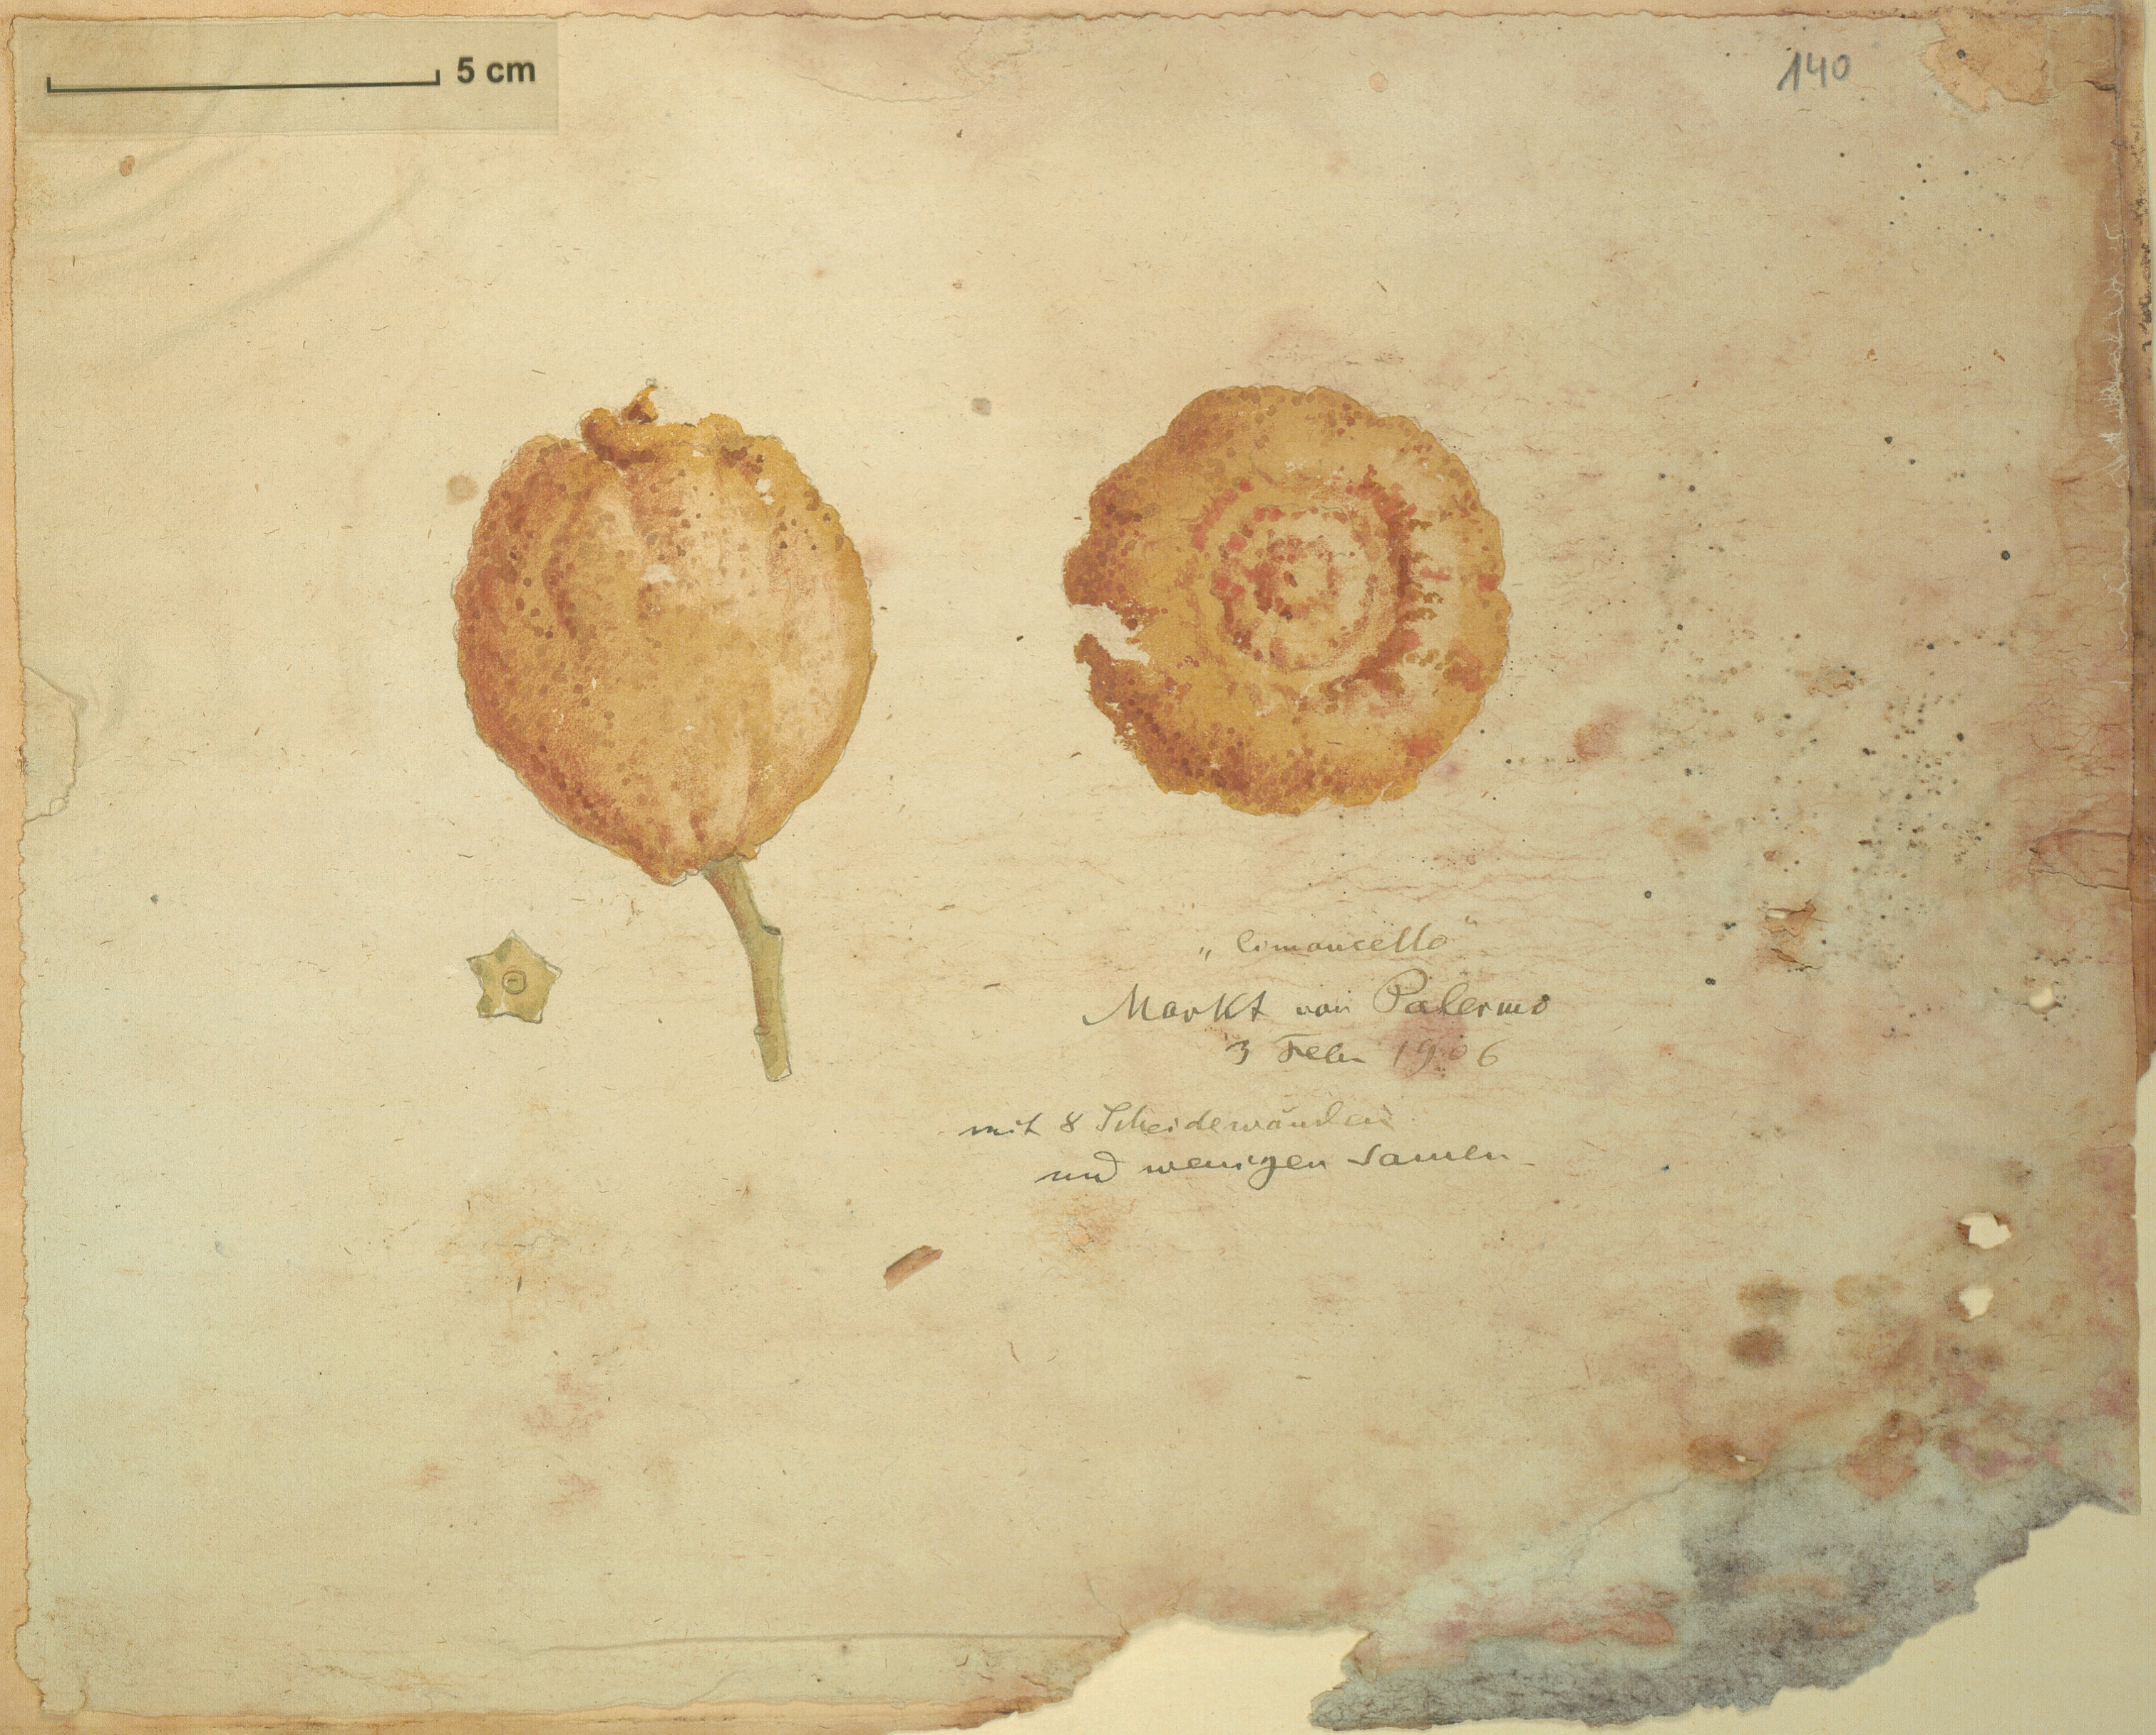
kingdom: Plantae
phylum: Tracheophyta
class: Magnoliopsida
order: Sapindales
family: Rutaceae
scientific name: Rutaceae
